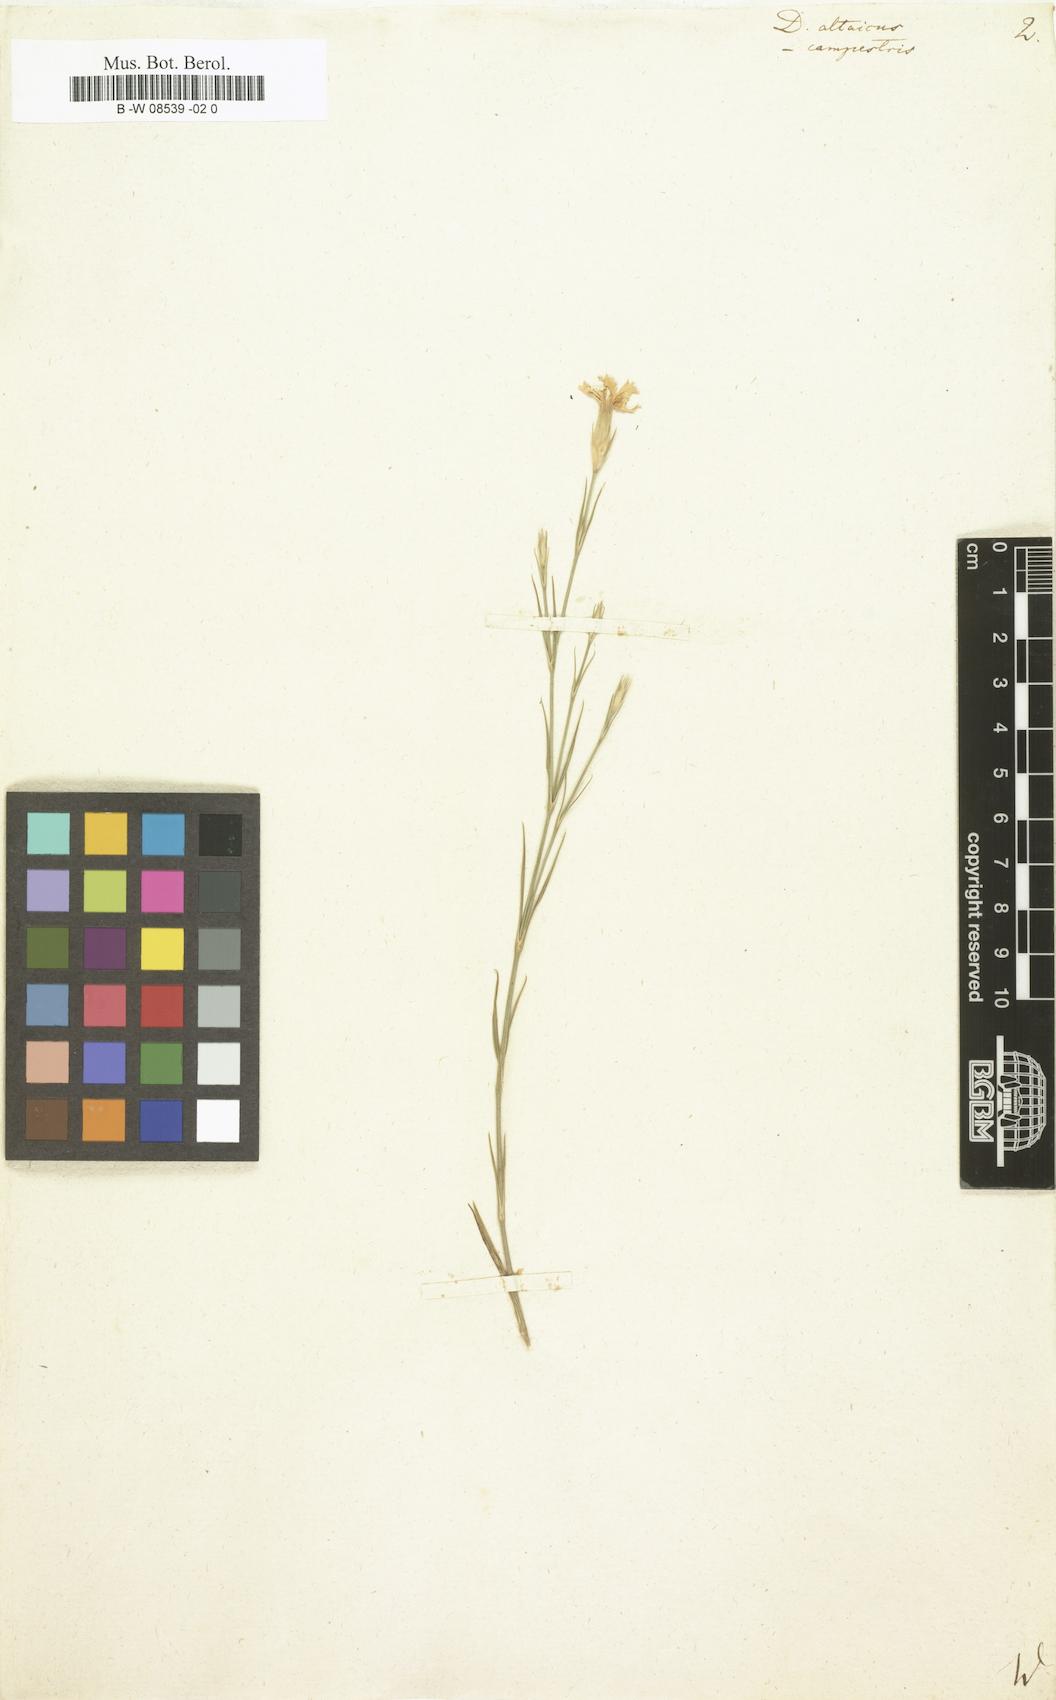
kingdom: Plantae
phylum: Tracheophyta
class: Magnoliopsida
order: Caryophyllales
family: Caryophyllaceae
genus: Dianthus
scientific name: Dianthus altaicus
